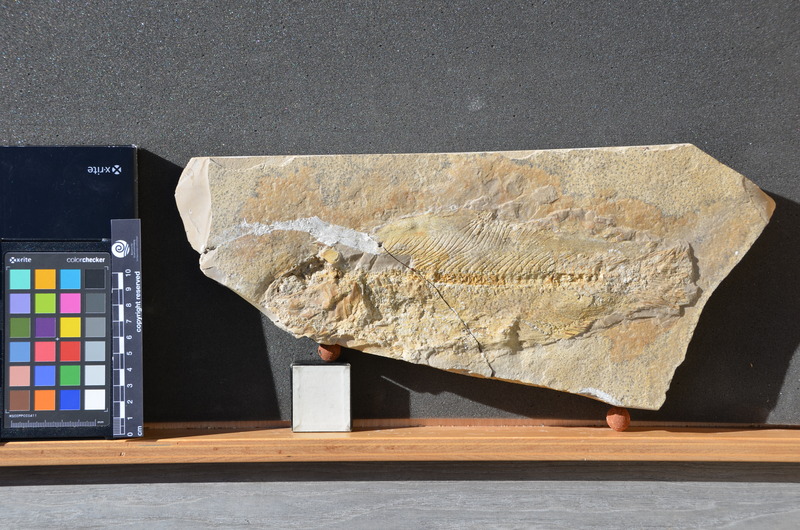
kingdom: Animalia
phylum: Chordata
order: Amiiformes
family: Ionoscopidae
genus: Ionoscopus
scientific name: Ionoscopus desori
